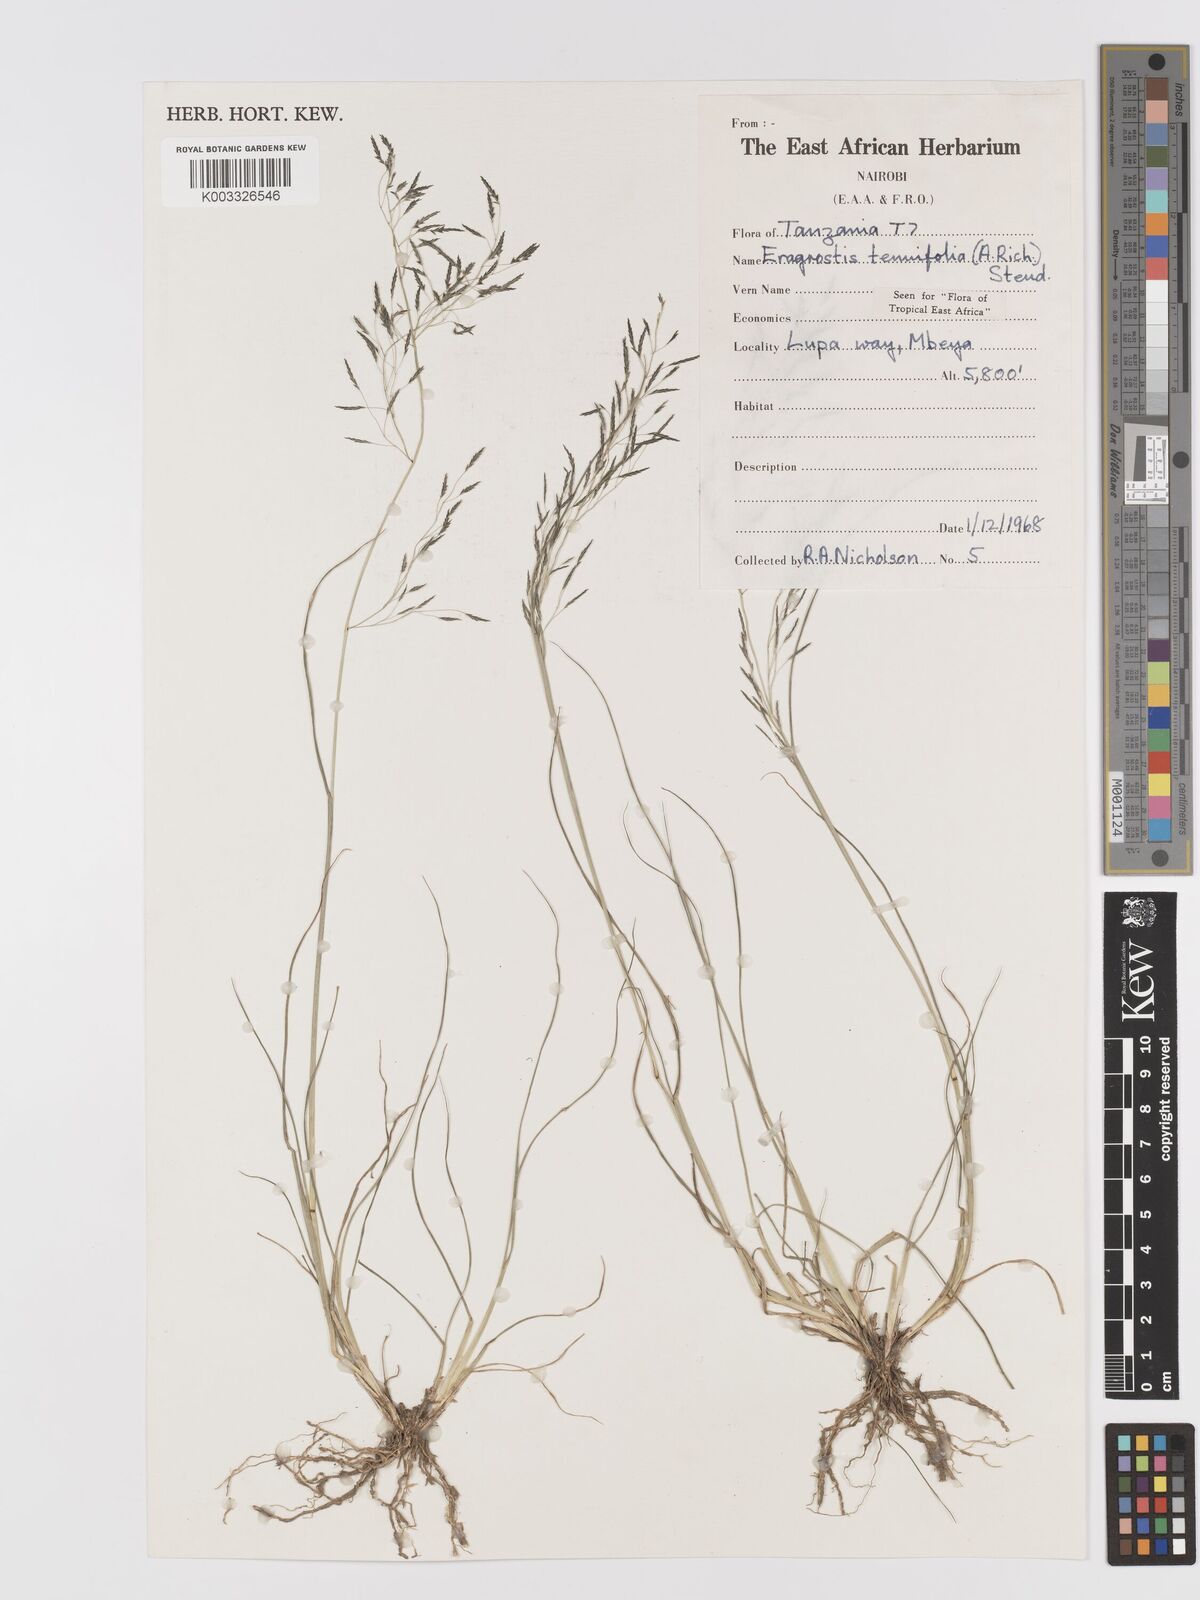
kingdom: Plantae
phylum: Tracheophyta
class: Liliopsida
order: Poales
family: Poaceae
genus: Eragrostis
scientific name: Eragrostis tenuifolia
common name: Elastic grass
